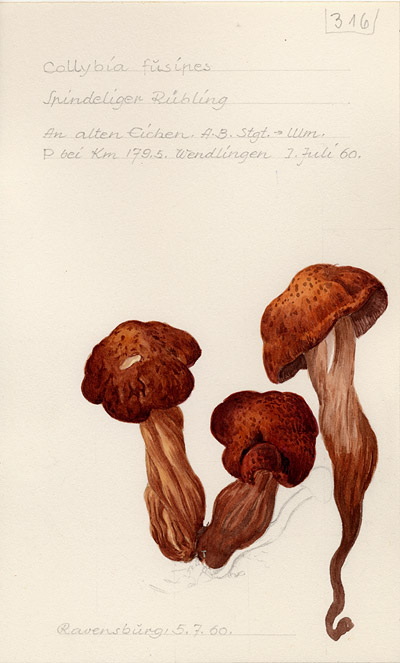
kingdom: Fungi
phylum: Basidiomycota
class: Agaricomycetes
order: Agaricales
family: Omphalotaceae
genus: Gymnopus
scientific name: Gymnopus fusipes
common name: Spindle shank
